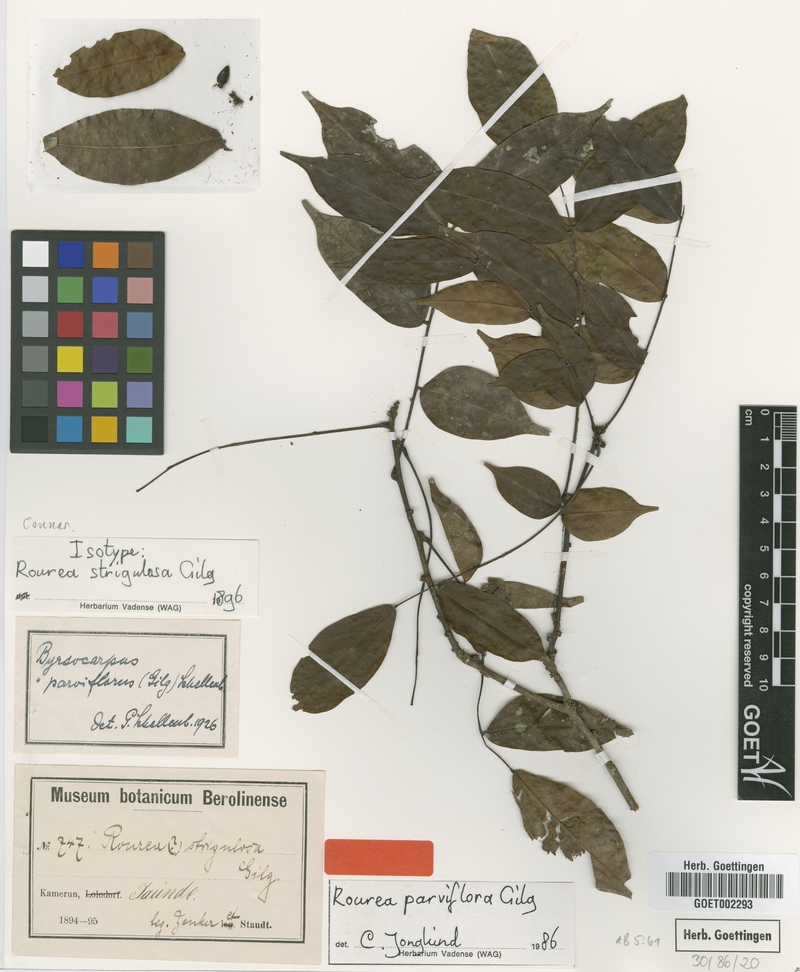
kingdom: Plantae
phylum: Tracheophyta
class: Magnoliopsida
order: Oxalidales
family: Connaraceae
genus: Rourea
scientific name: Rourea parviflora
